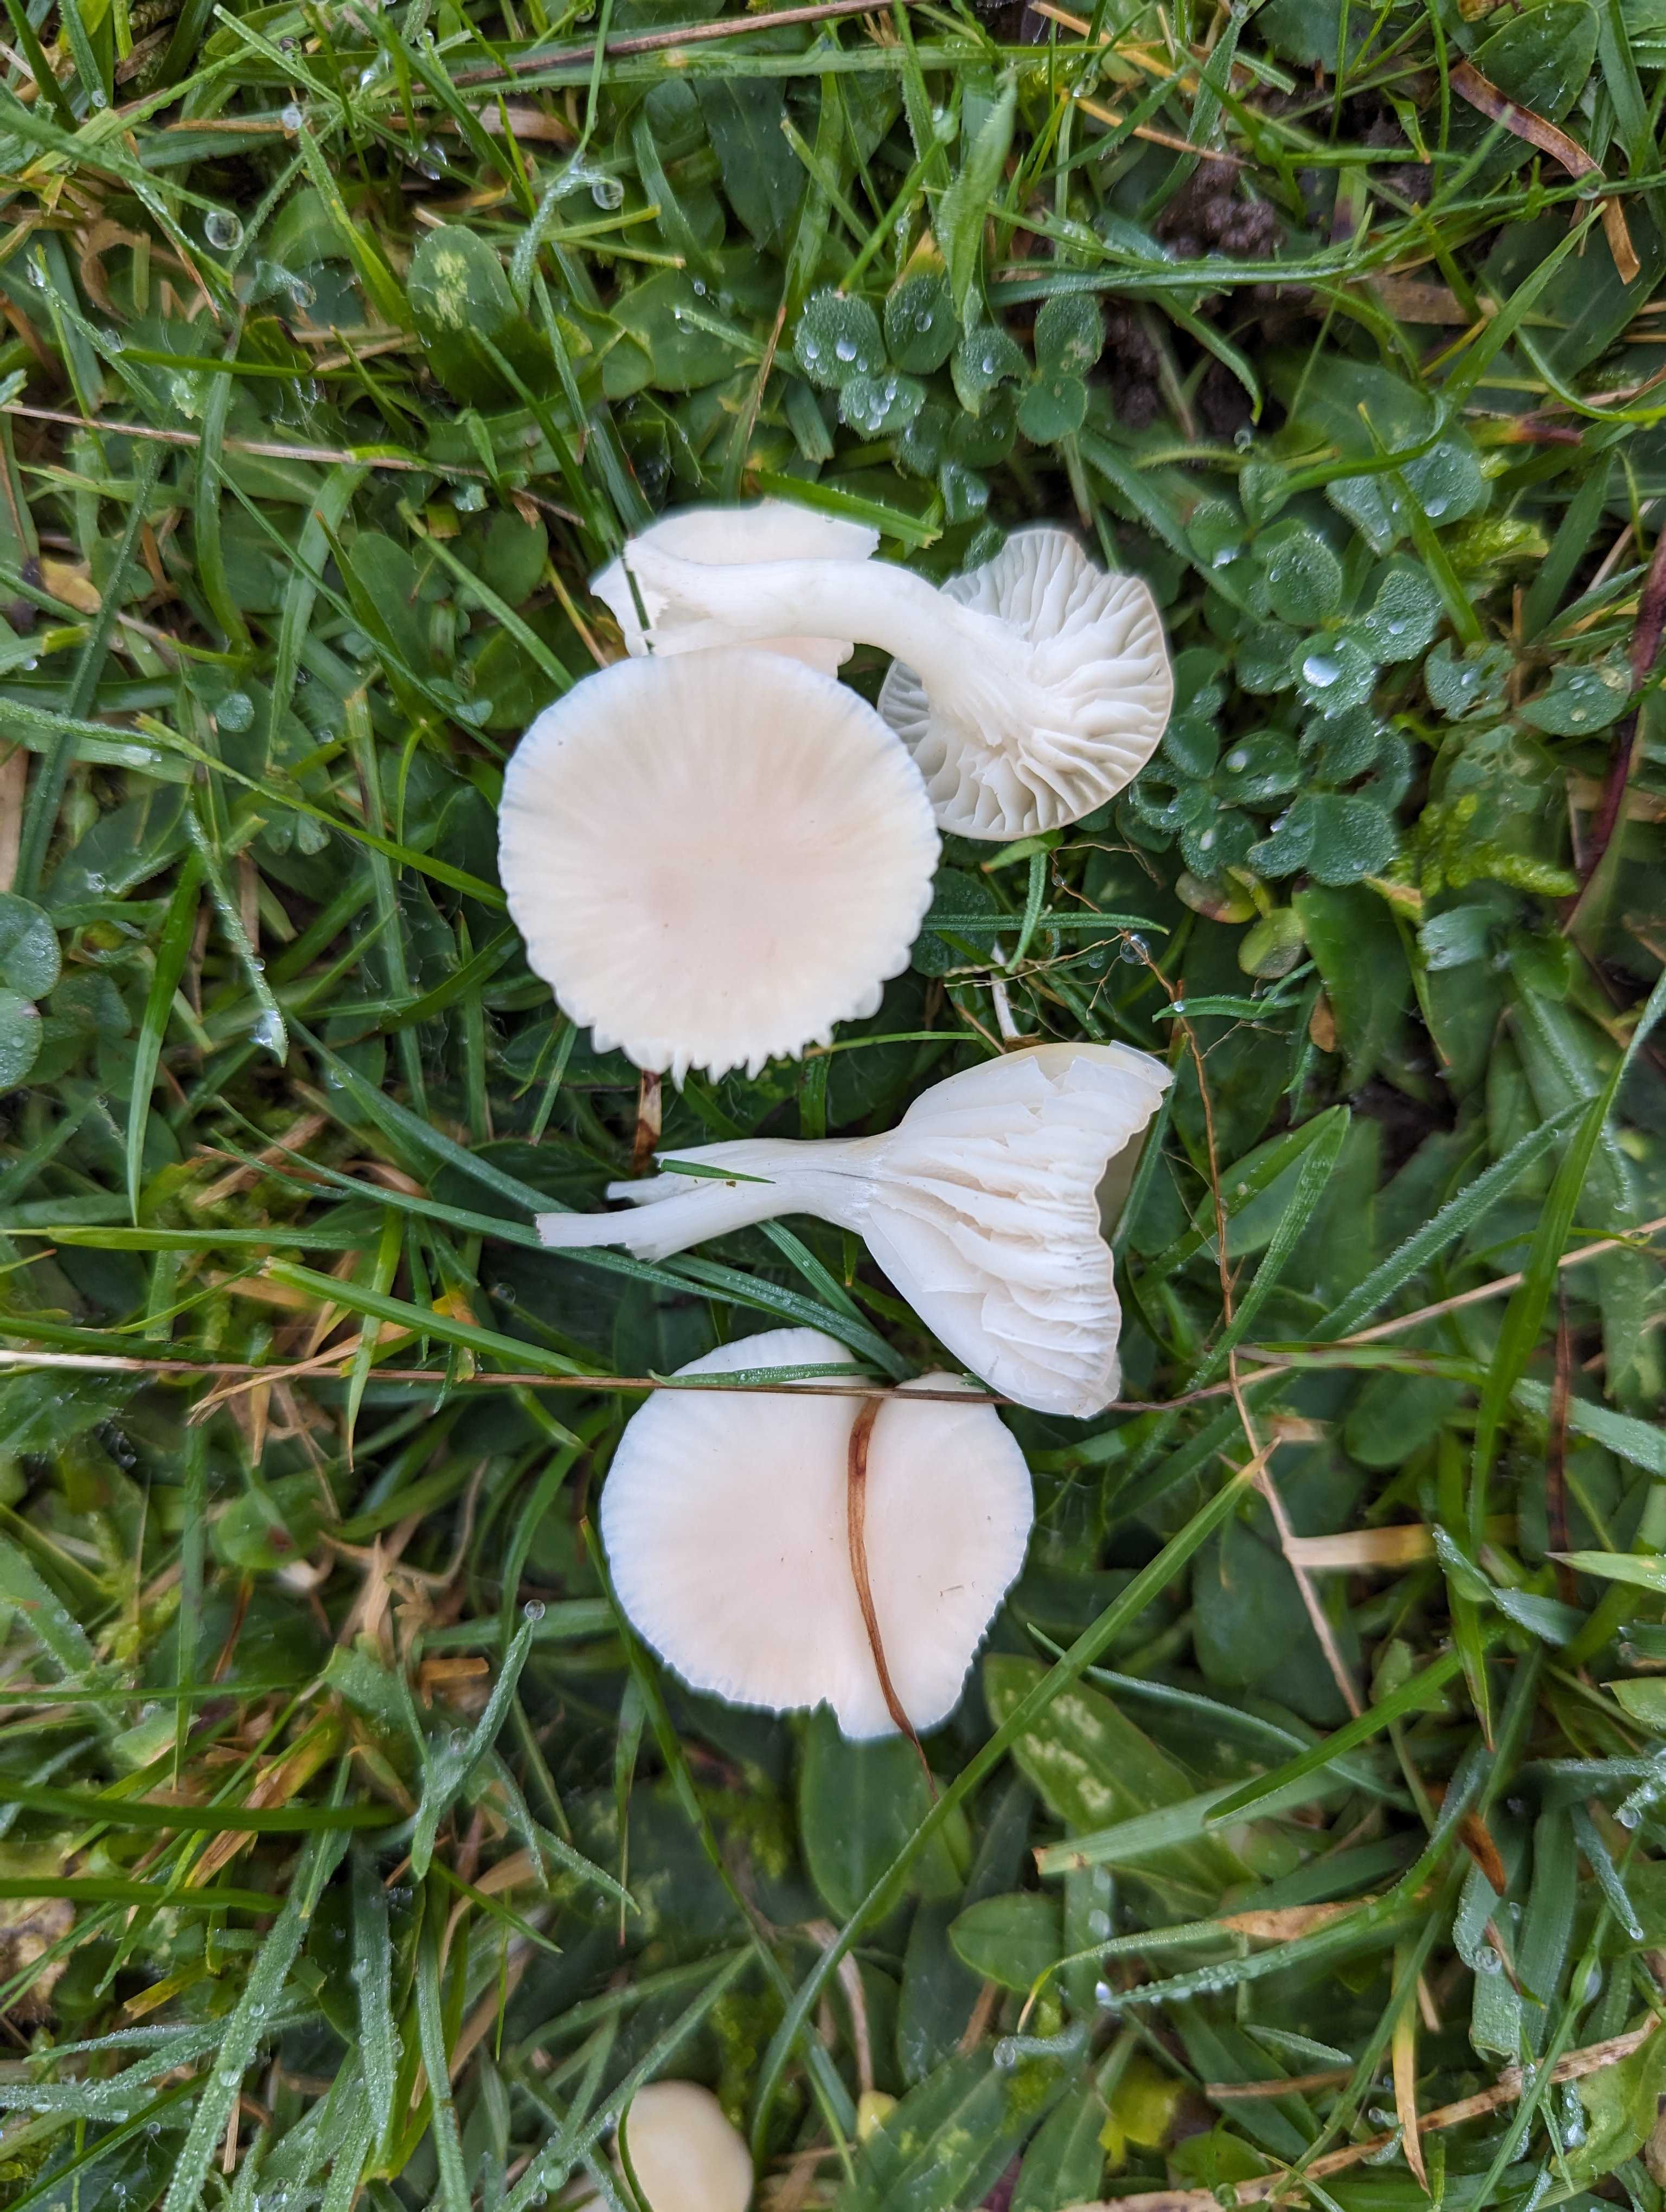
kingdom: Fungi
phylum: Basidiomycota
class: Agaricomycetes
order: Agaricales
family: Hygrophoraceae
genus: Cuphophyllus
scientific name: Cuphophyllus virgineus
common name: snehvid vokshat
